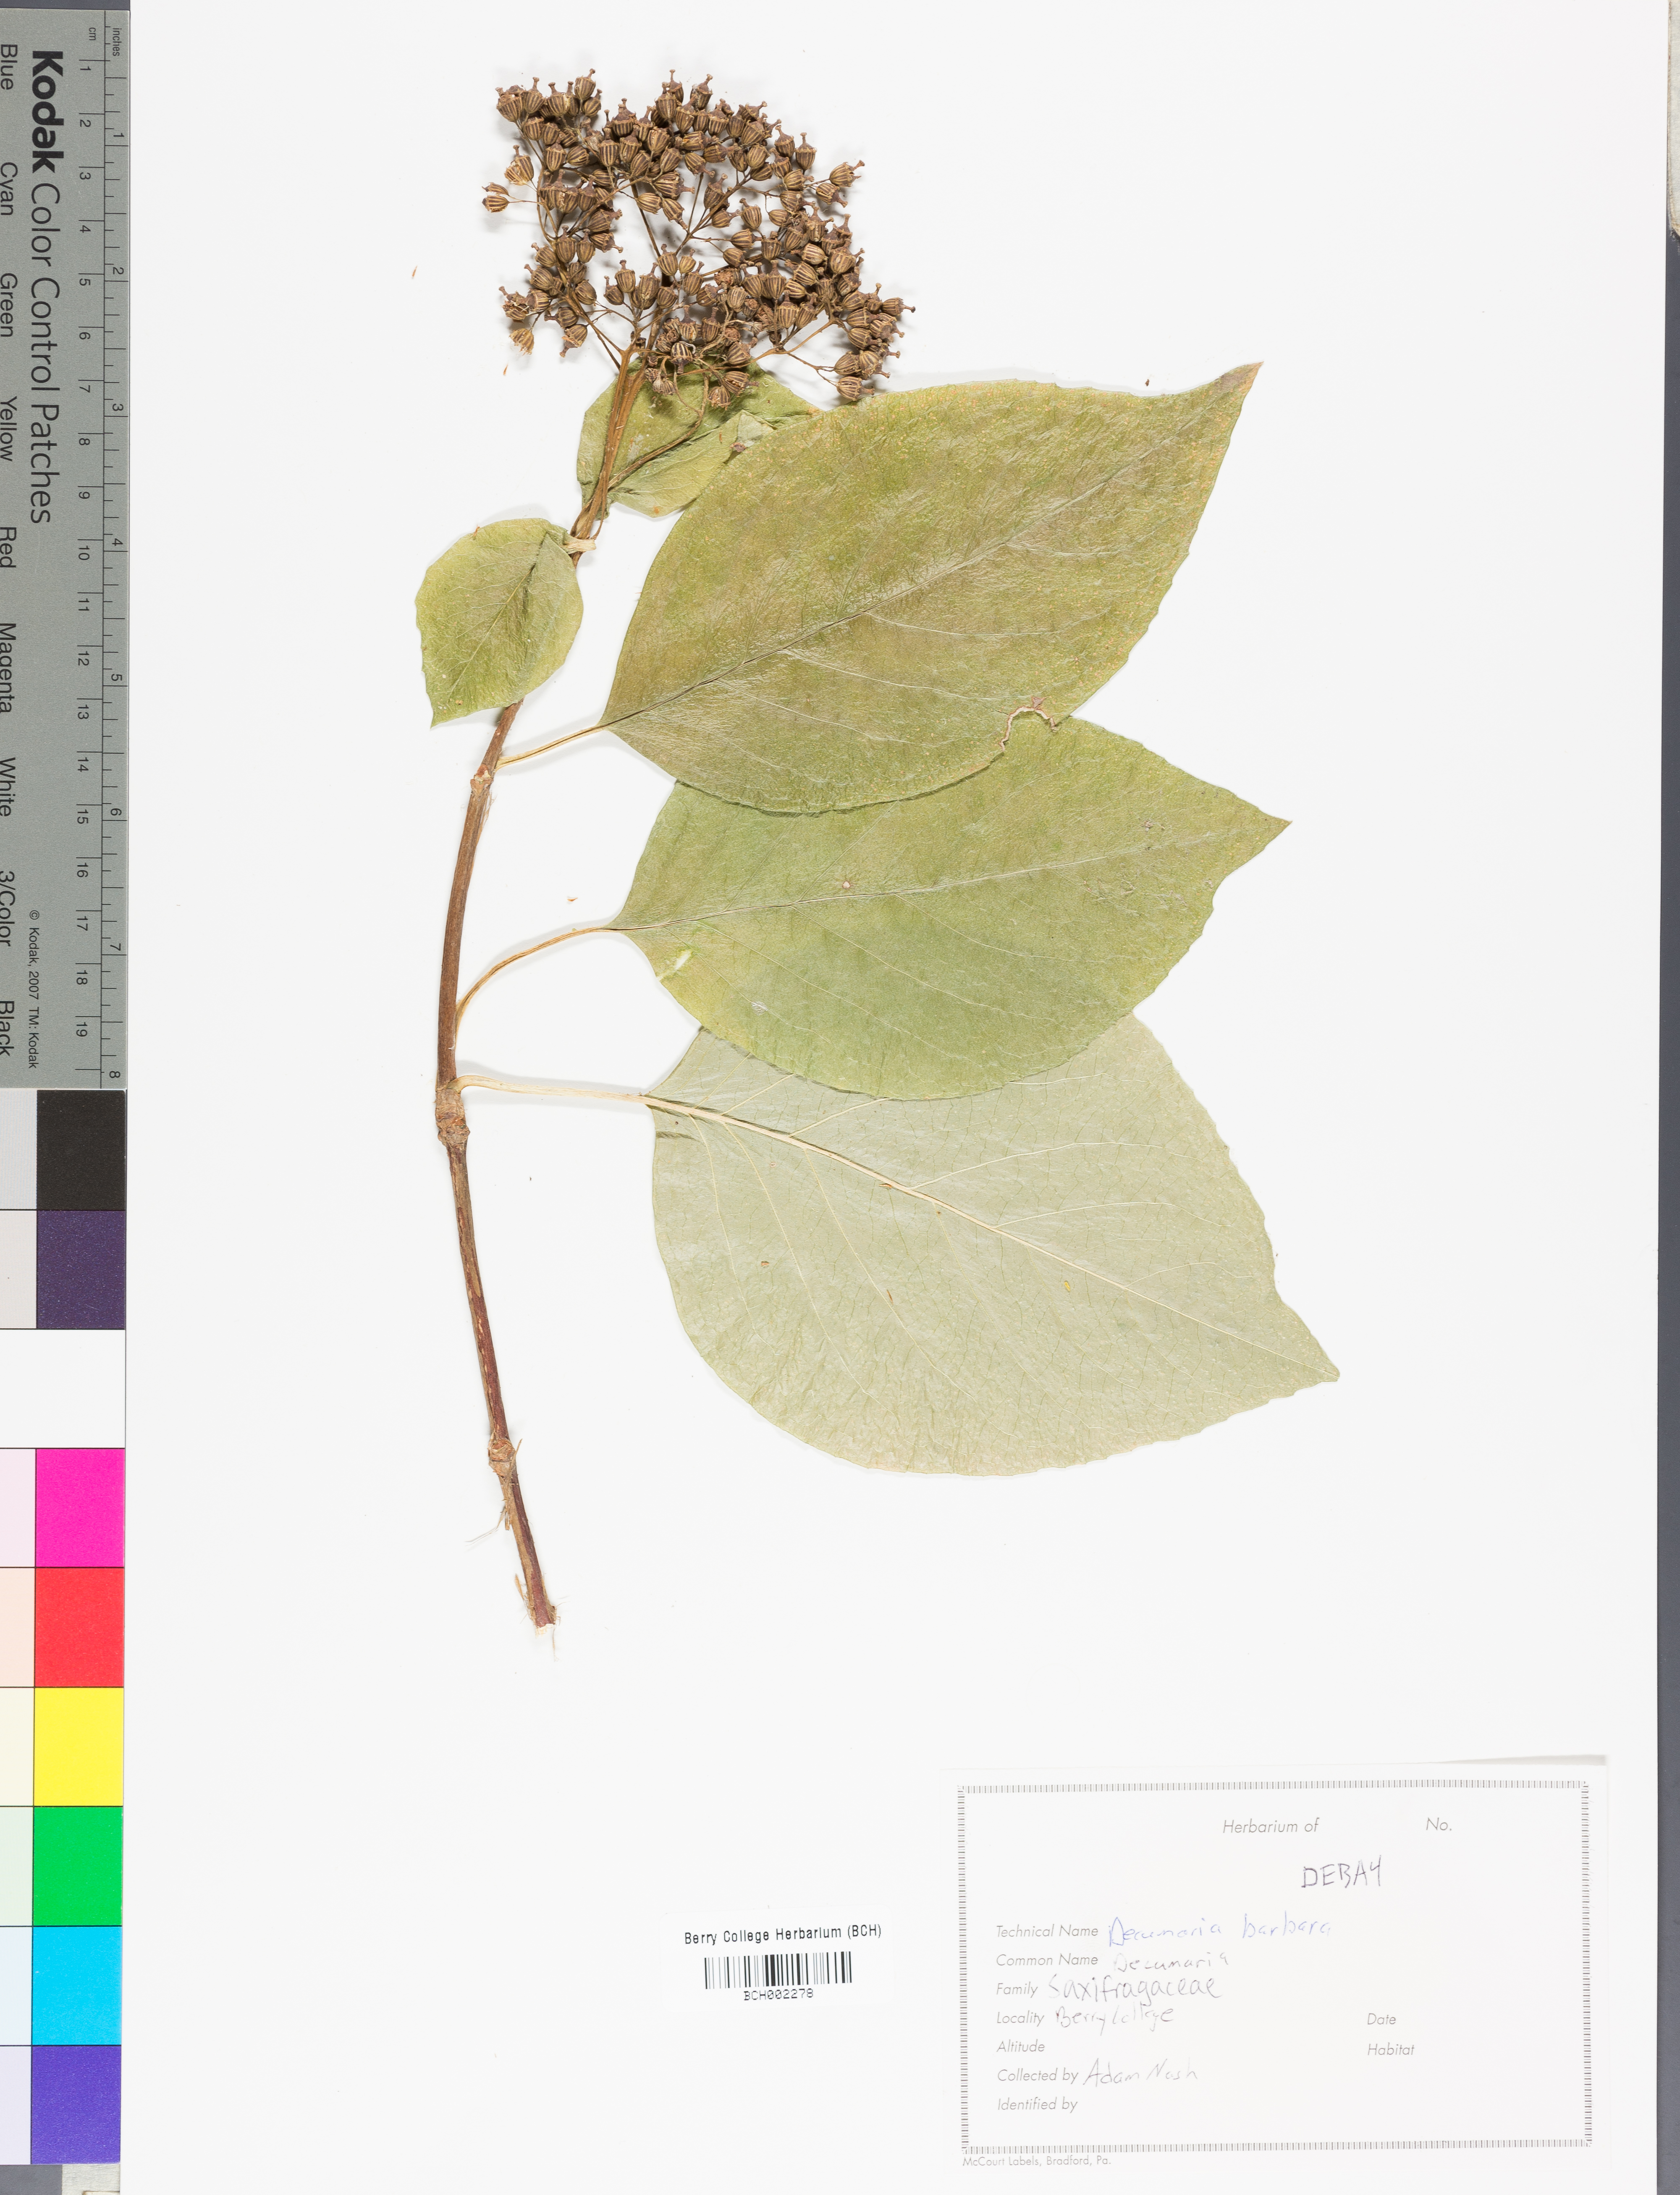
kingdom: Plantae
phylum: Tracheophyta
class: Magnoliopsida
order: Cornales
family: Hydrangeaceae
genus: Hydrangea
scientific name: Hydrangea barbara
